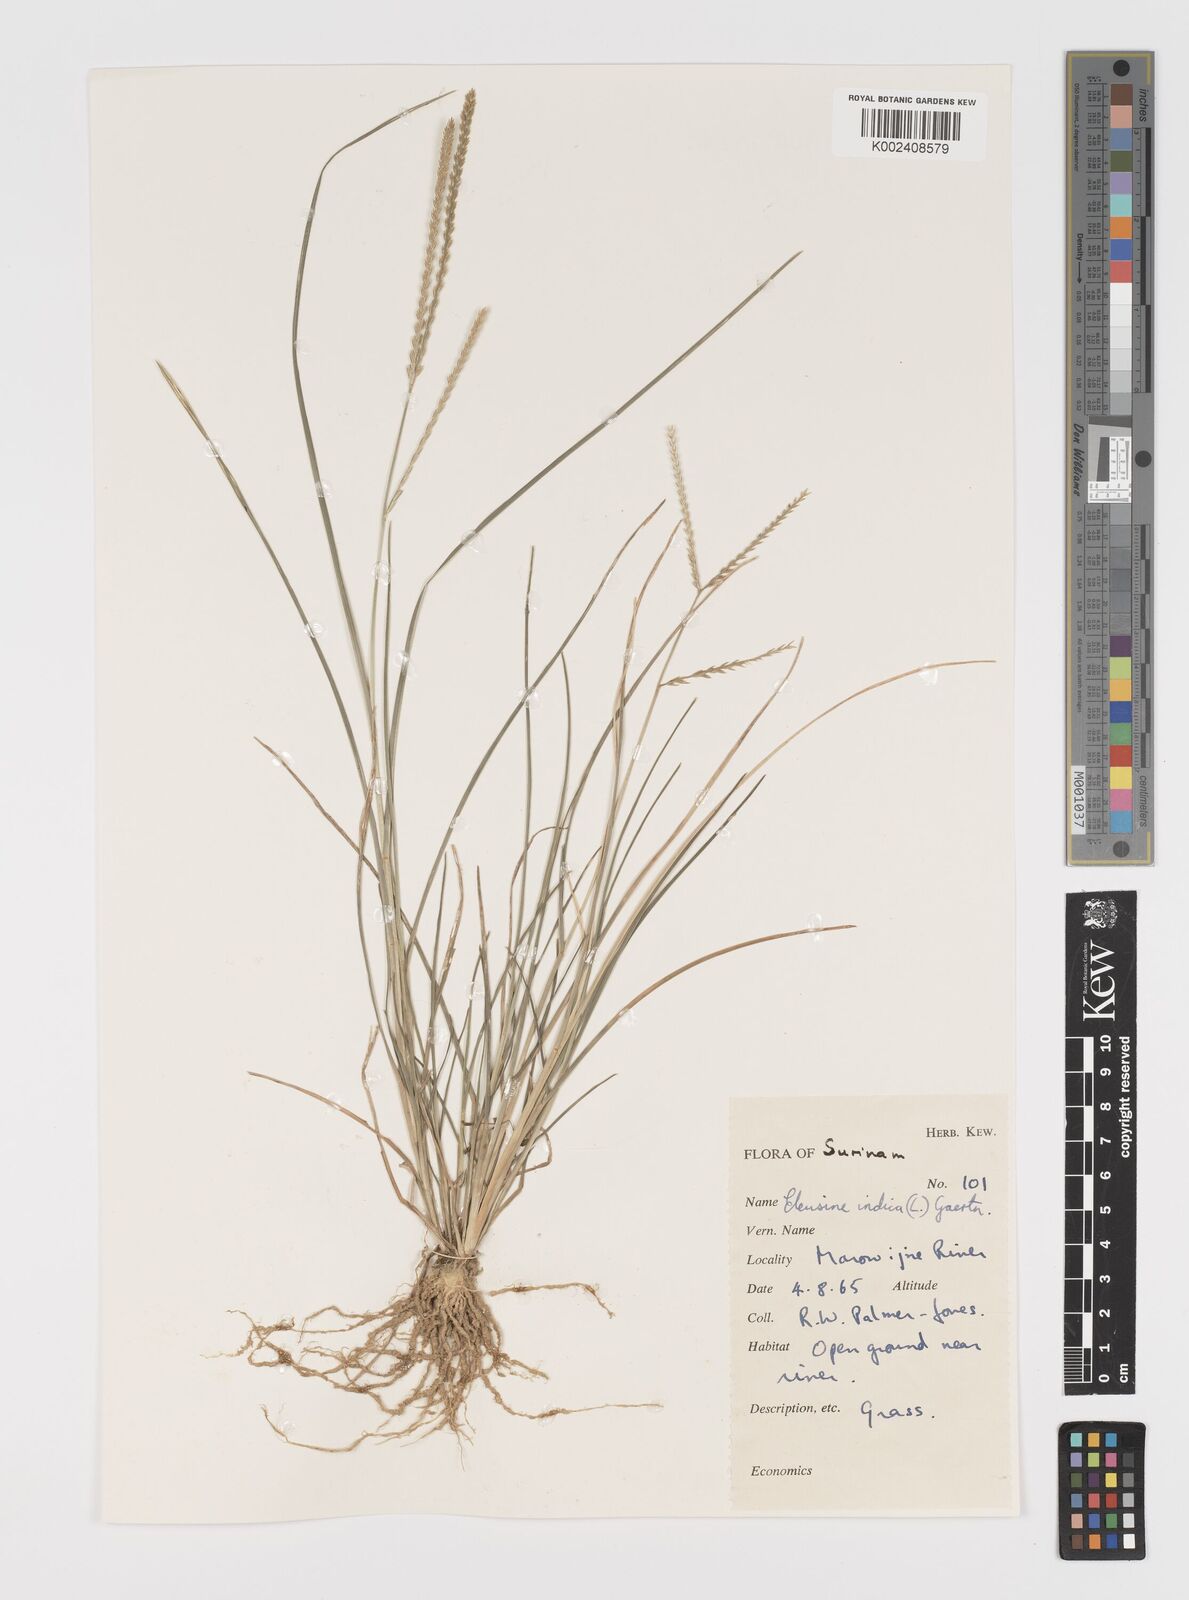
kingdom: Plantae
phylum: Tracheophyta
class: Liliopsida
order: Poales
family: Poaceae
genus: Eleusine
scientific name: Eleusine indica
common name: Yard-grass
